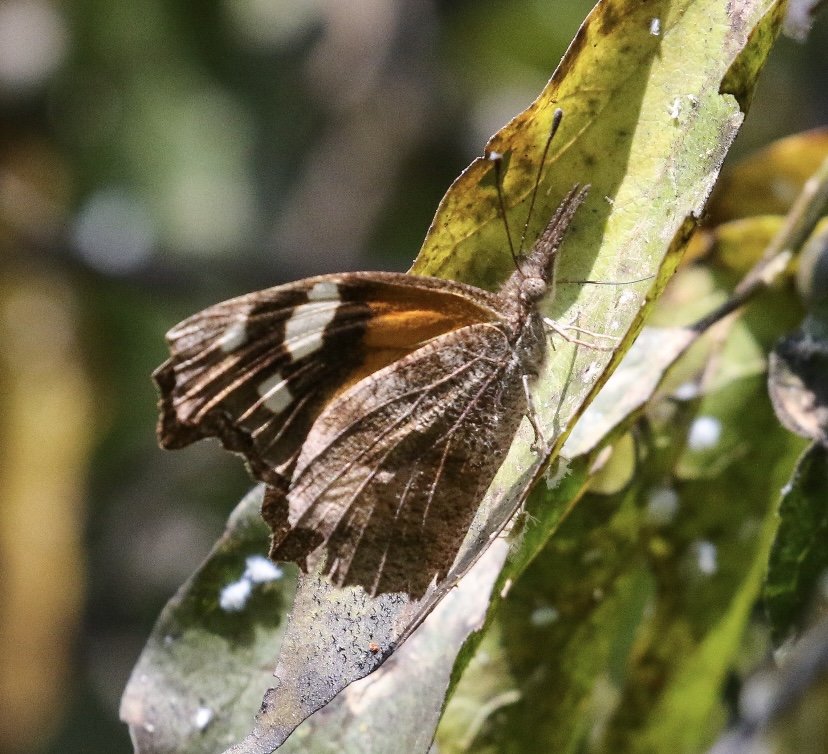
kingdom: Animalia
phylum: Arthropoda
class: Insecta
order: Lepidoptera
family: Nymphalidae
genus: Libytheana
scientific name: Libytheana carinenta
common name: American Snout
